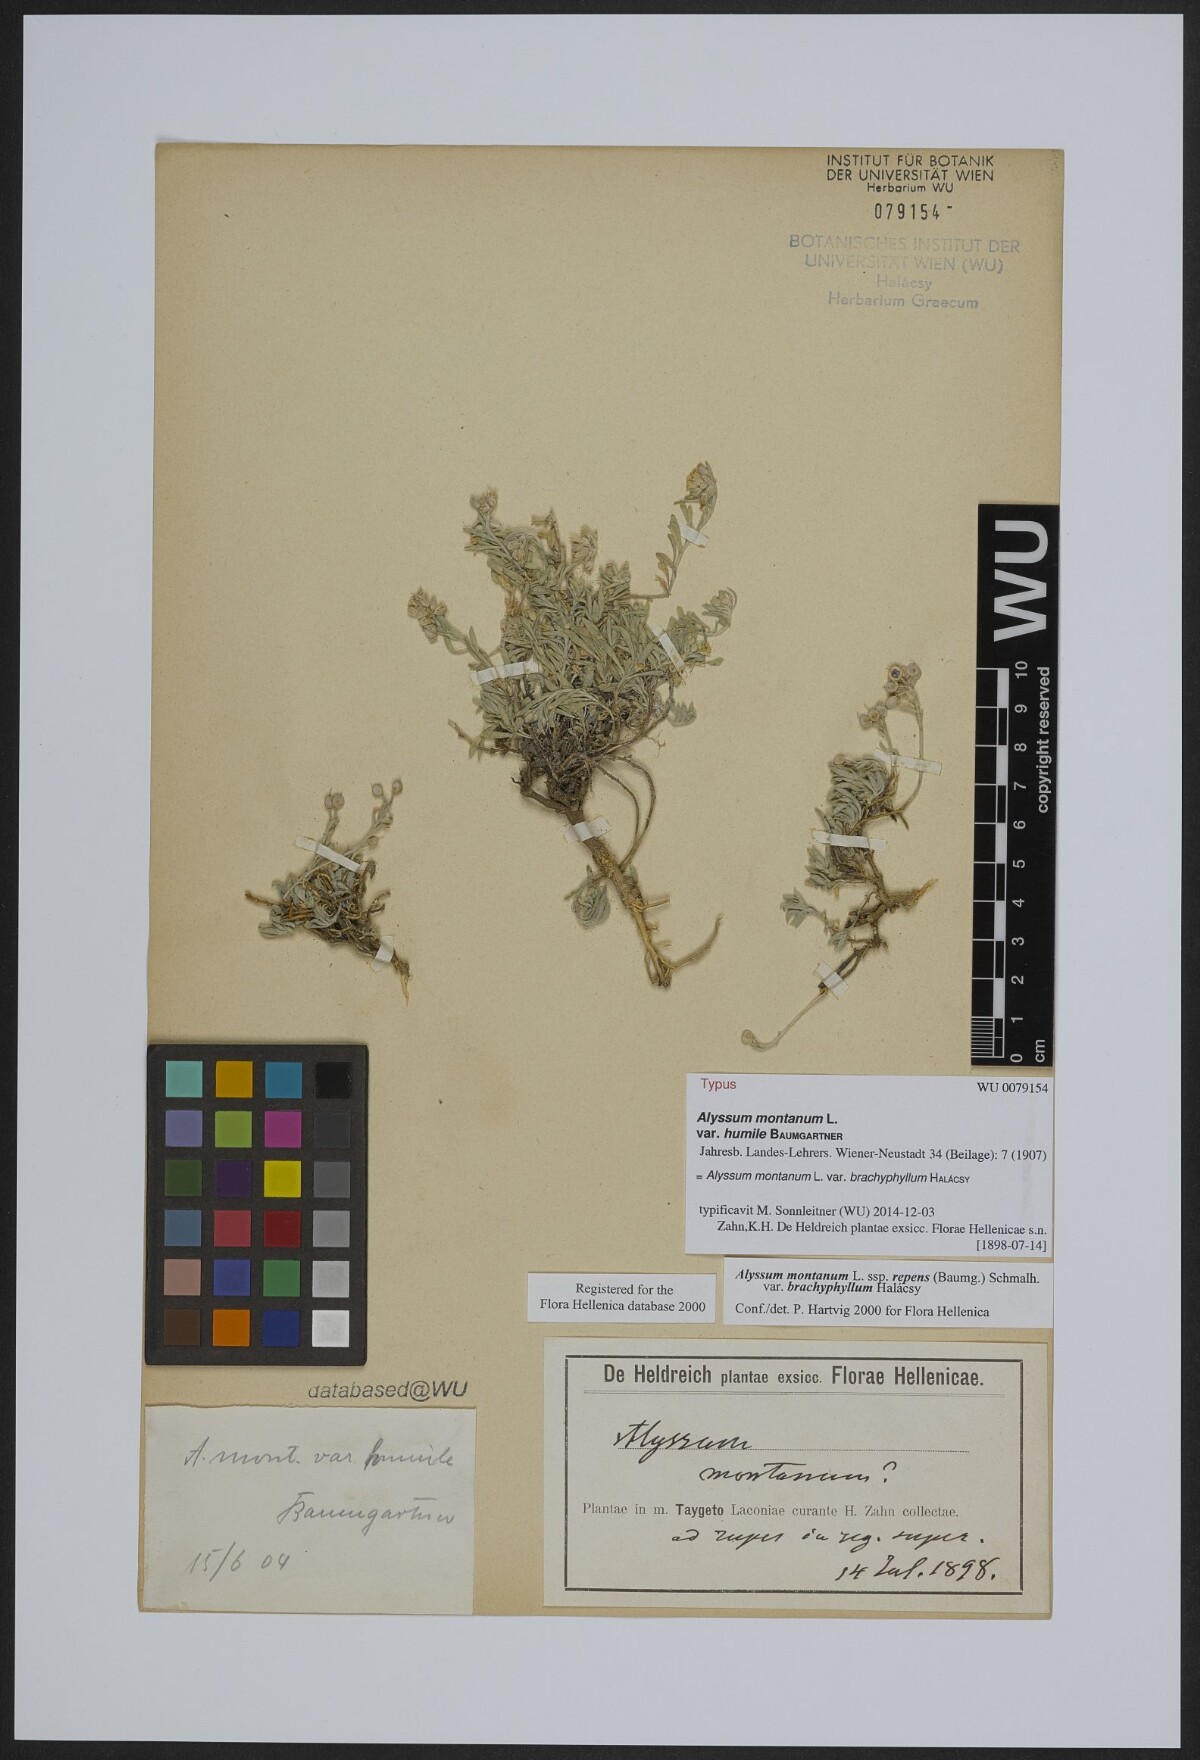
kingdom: Plantae
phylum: Tracheophyta
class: Magnoliopsida
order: Brassicales
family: Brassicaceae
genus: Alyssum
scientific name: Alyssum montanum
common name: Mountain alison
